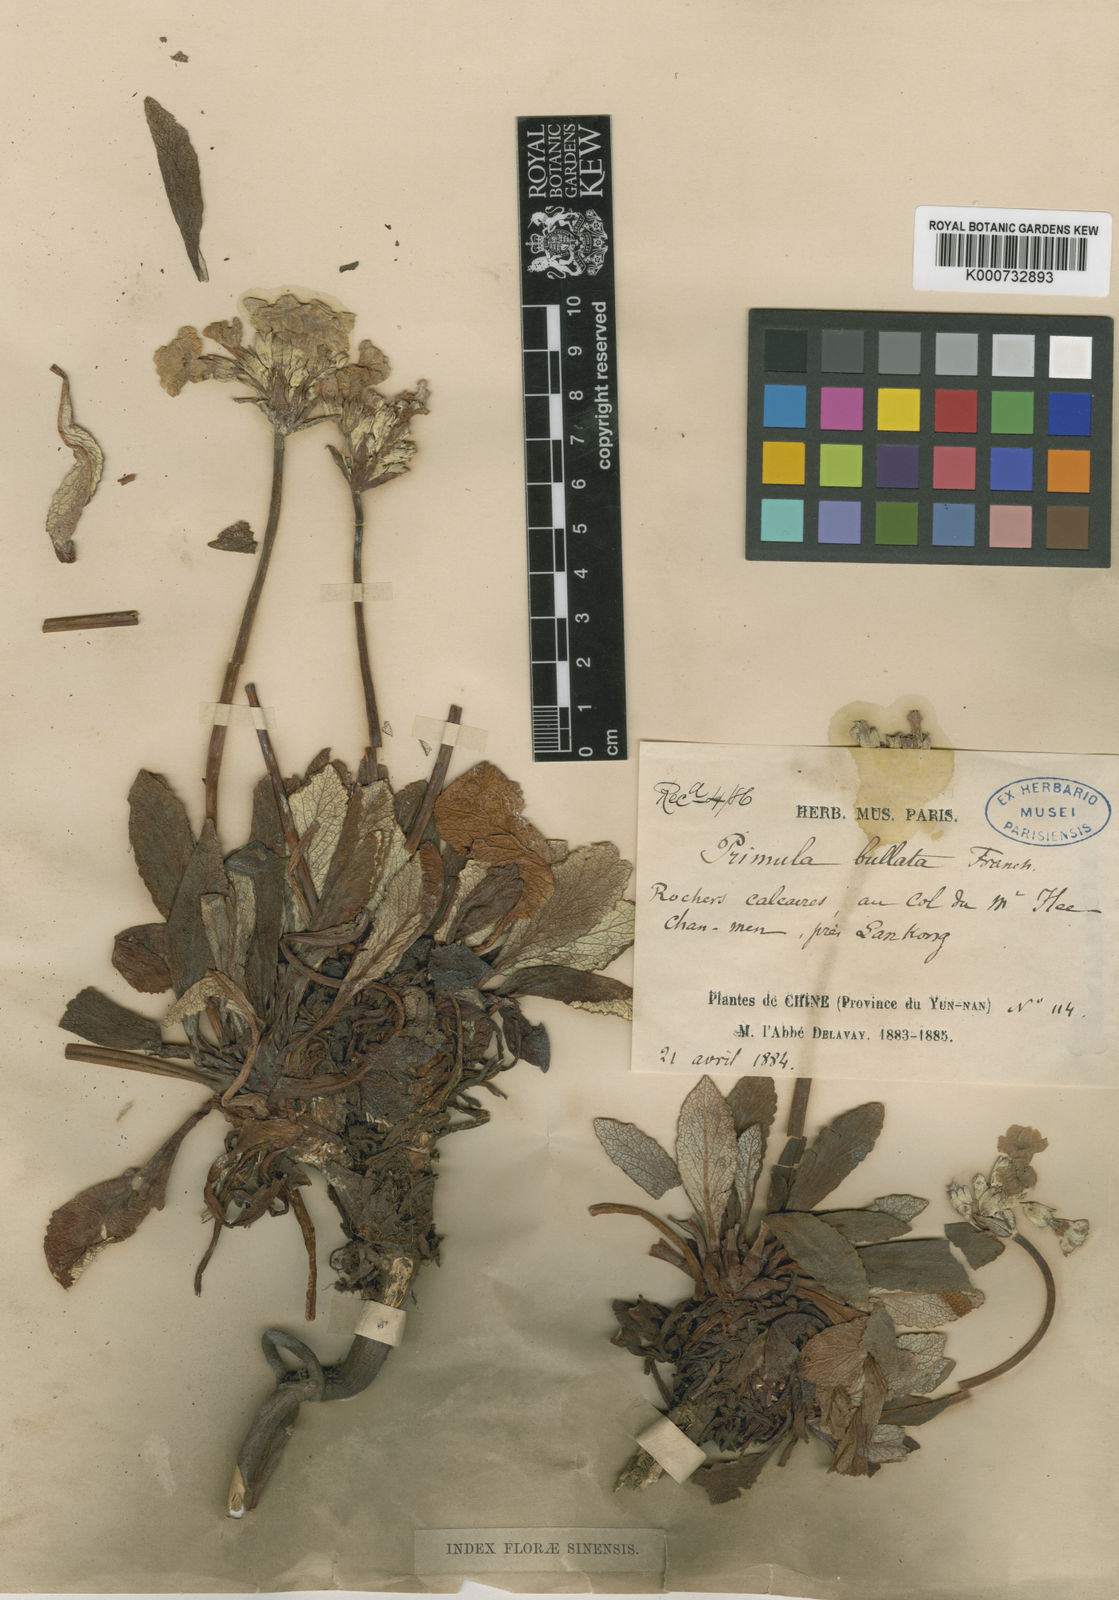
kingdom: Plantae
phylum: Tracheophyta
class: Magnoliopsida
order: Ericales
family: Primulaceae
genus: Primula
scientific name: Primula bullata
